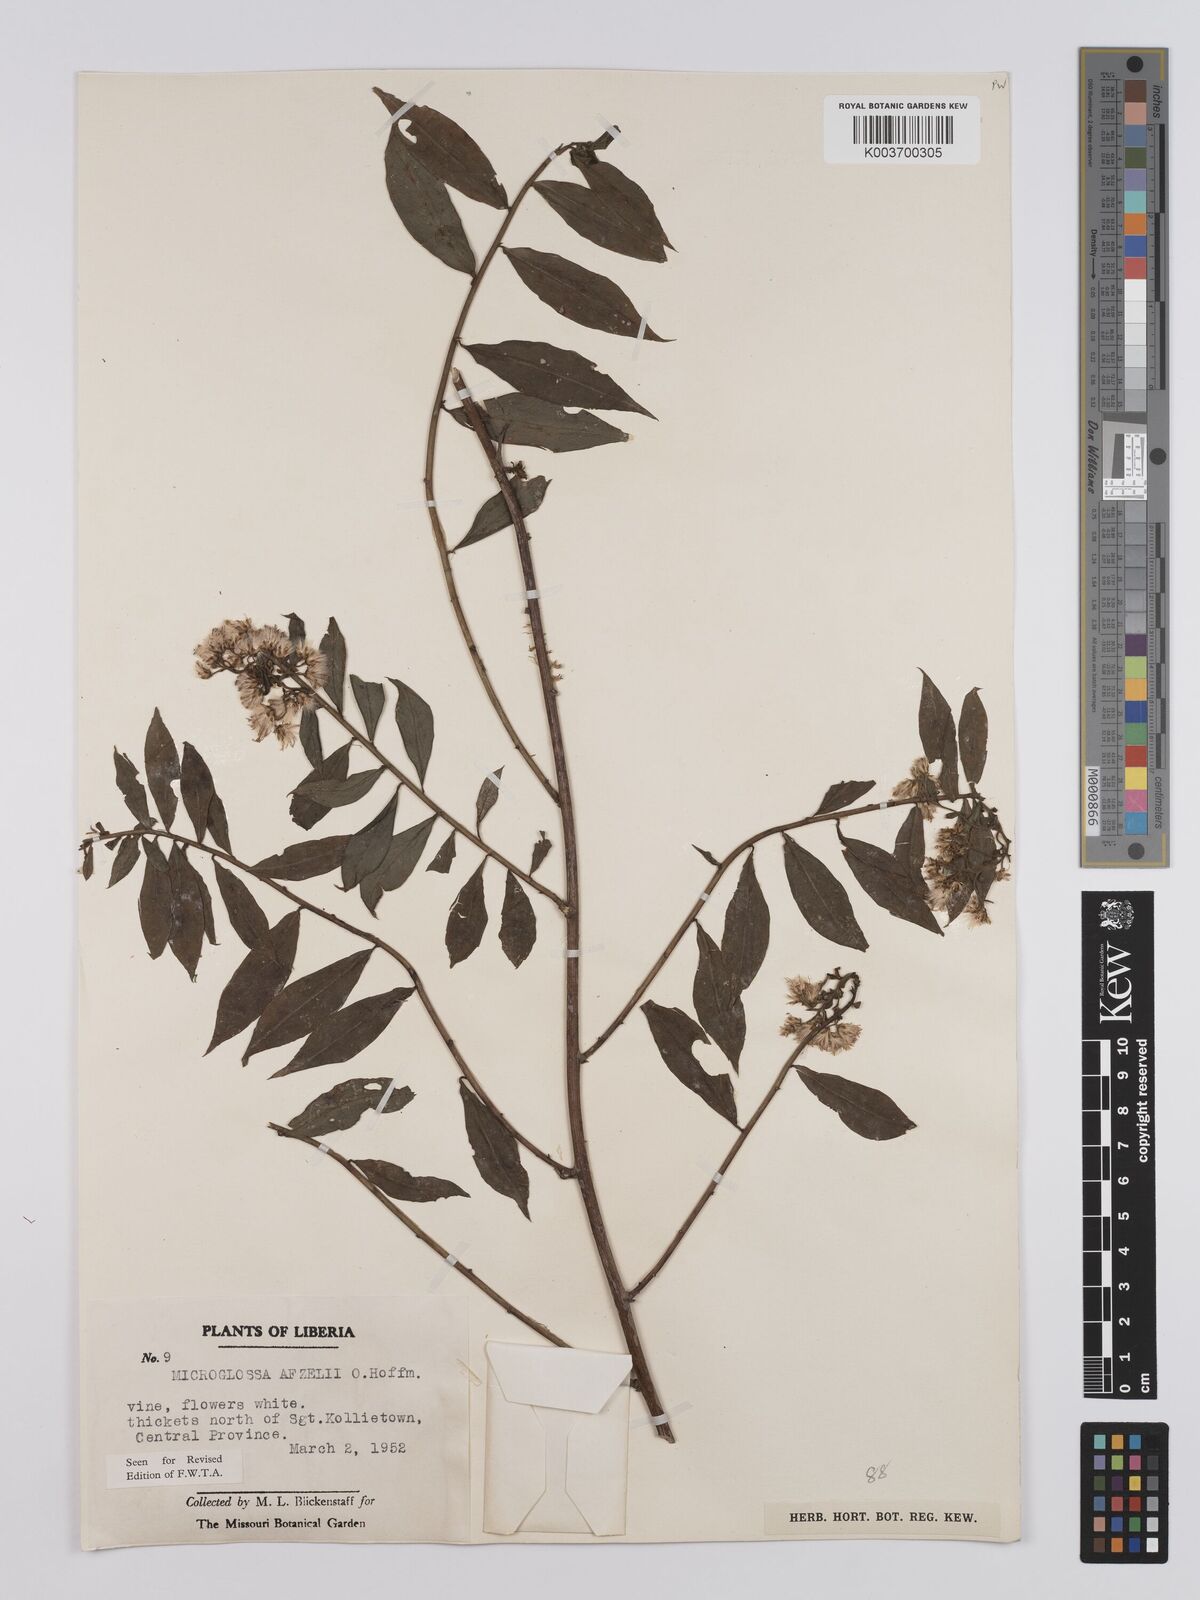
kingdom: Plantae
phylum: Tracheophyta
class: Magnoliopsida
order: Asterales
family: Asteraceae
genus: Microglossa
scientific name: Microglossa afzelii
